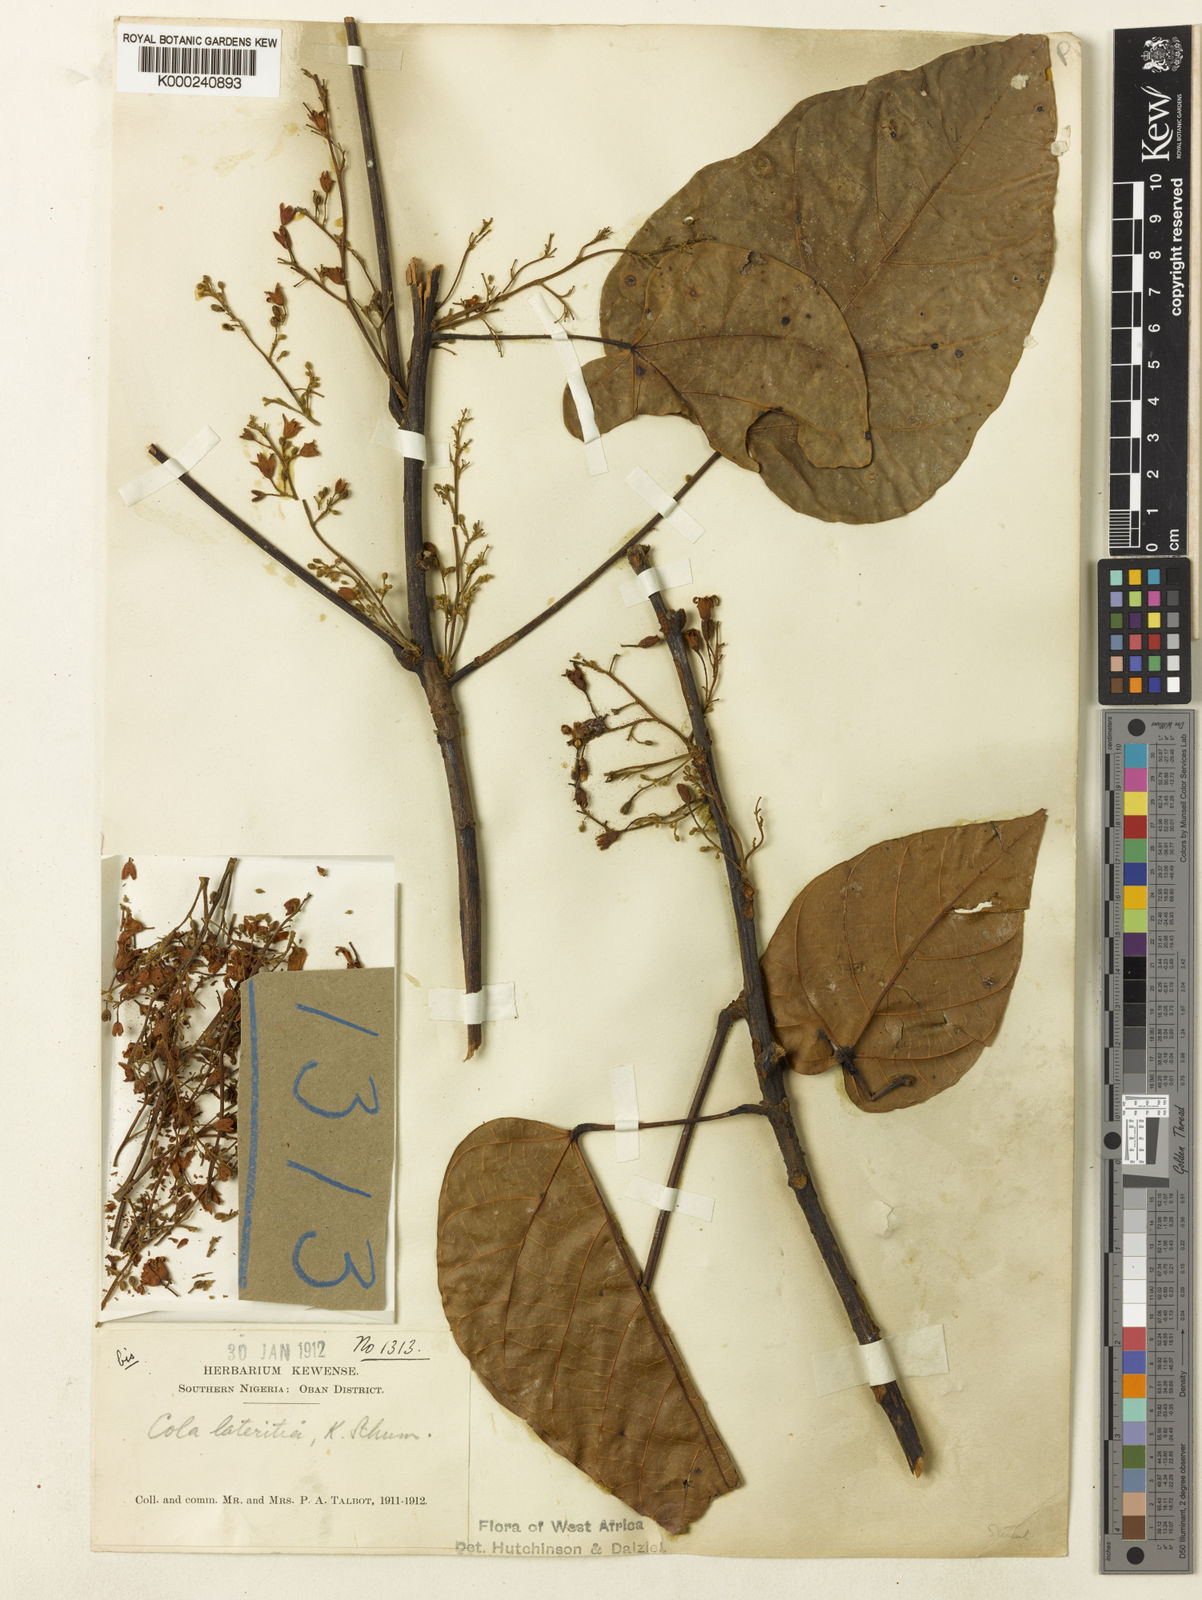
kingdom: Plantae
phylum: Tracheophyta
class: Magnoliopsida
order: Malvales
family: Malvaceae
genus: Cola
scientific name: Cola lateritia
